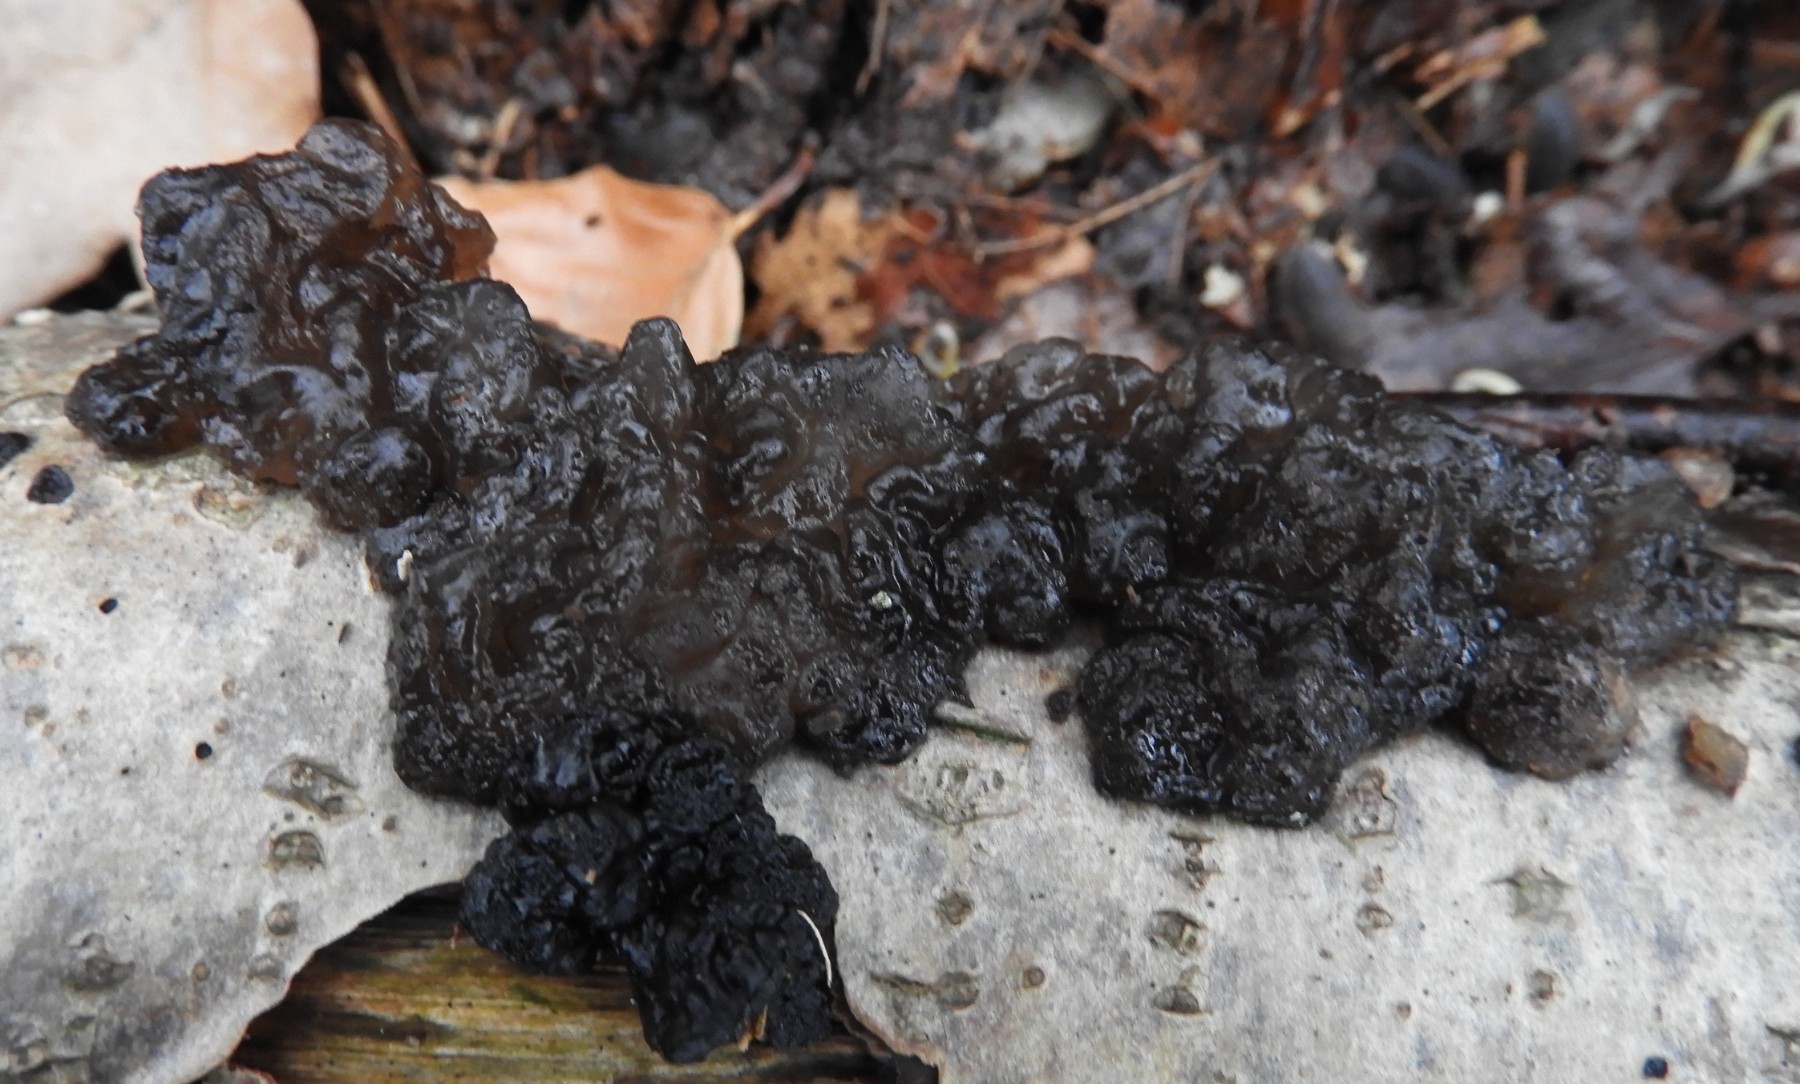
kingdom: Fungi
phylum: Basidiomycota
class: Agaricomycetes
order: Auriculariales
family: Auriculariaceae
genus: Exidia
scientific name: Exidia nigricans
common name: almindelig bævretop
